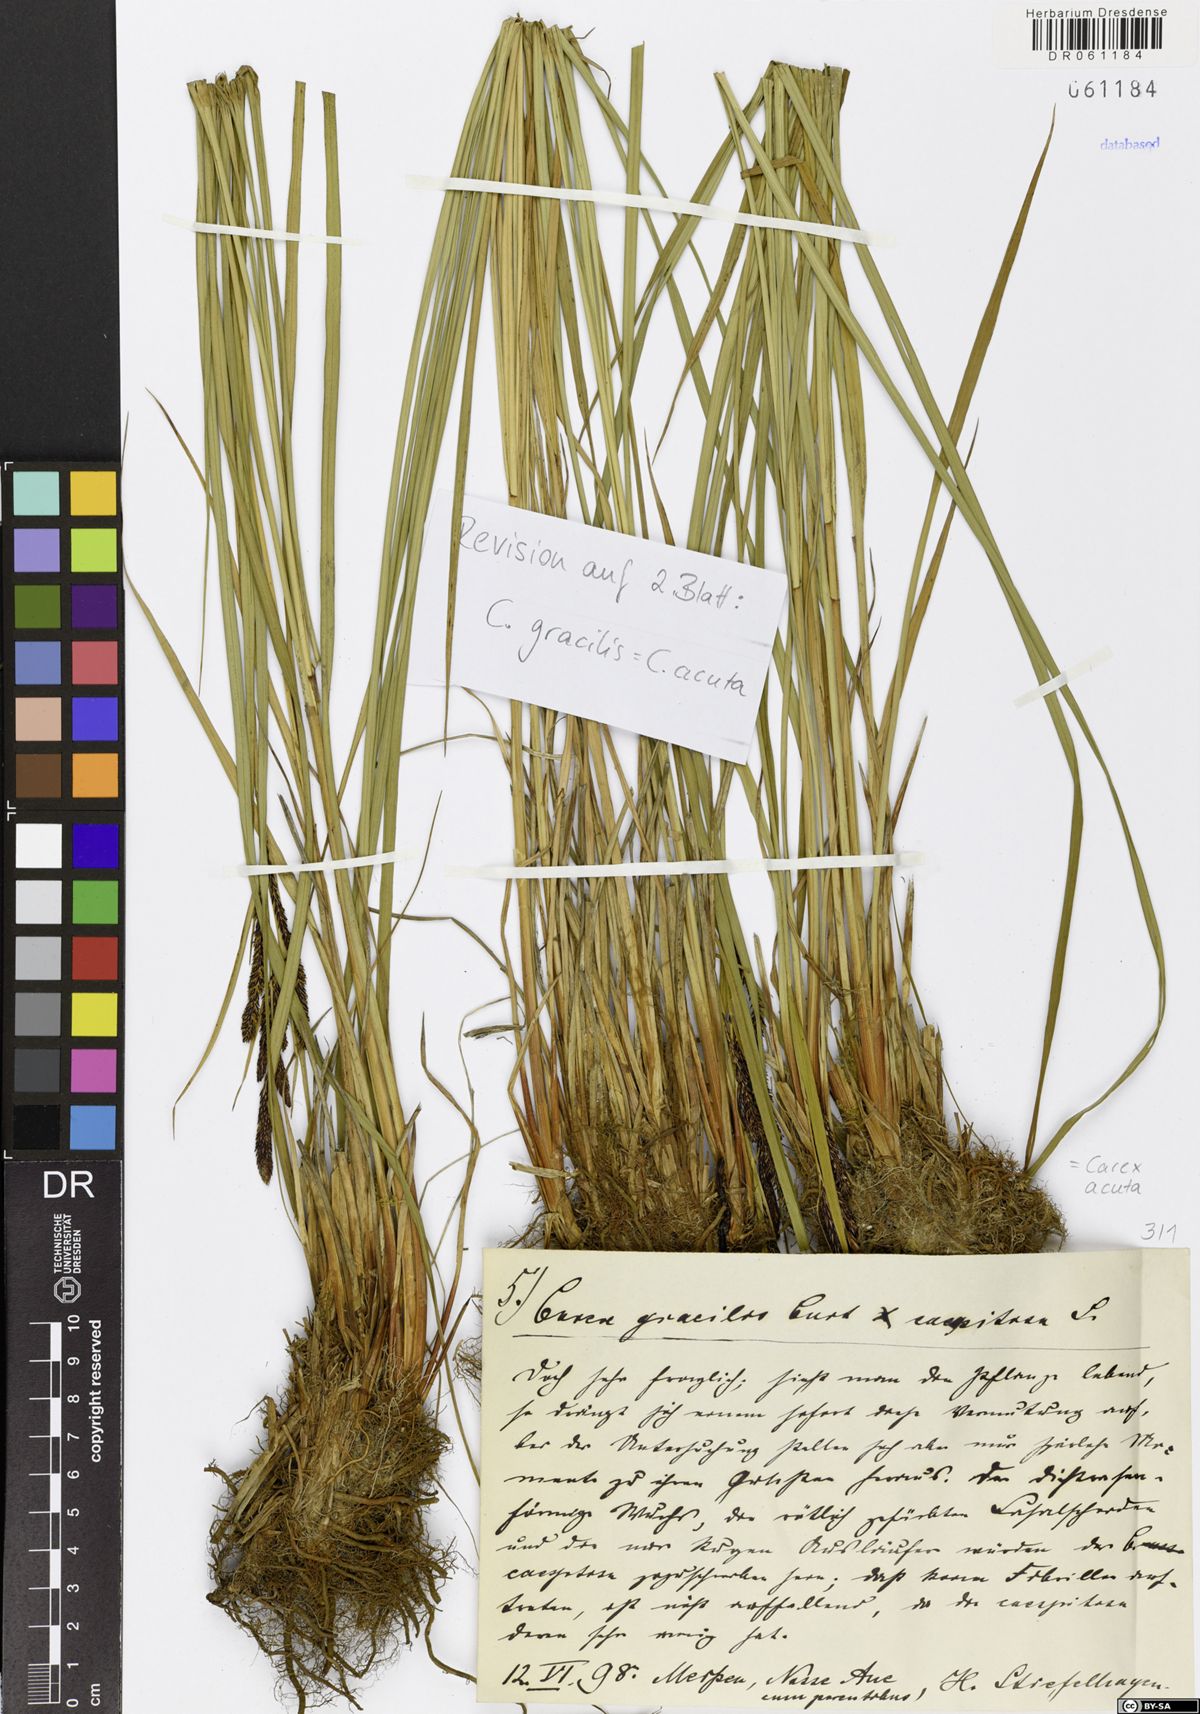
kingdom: Plantae
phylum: Tracheophyta
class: Liliopsida
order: Poales
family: Cyperaceae
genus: Carex
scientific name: Carex acuta
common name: Slender tufted-sedge
